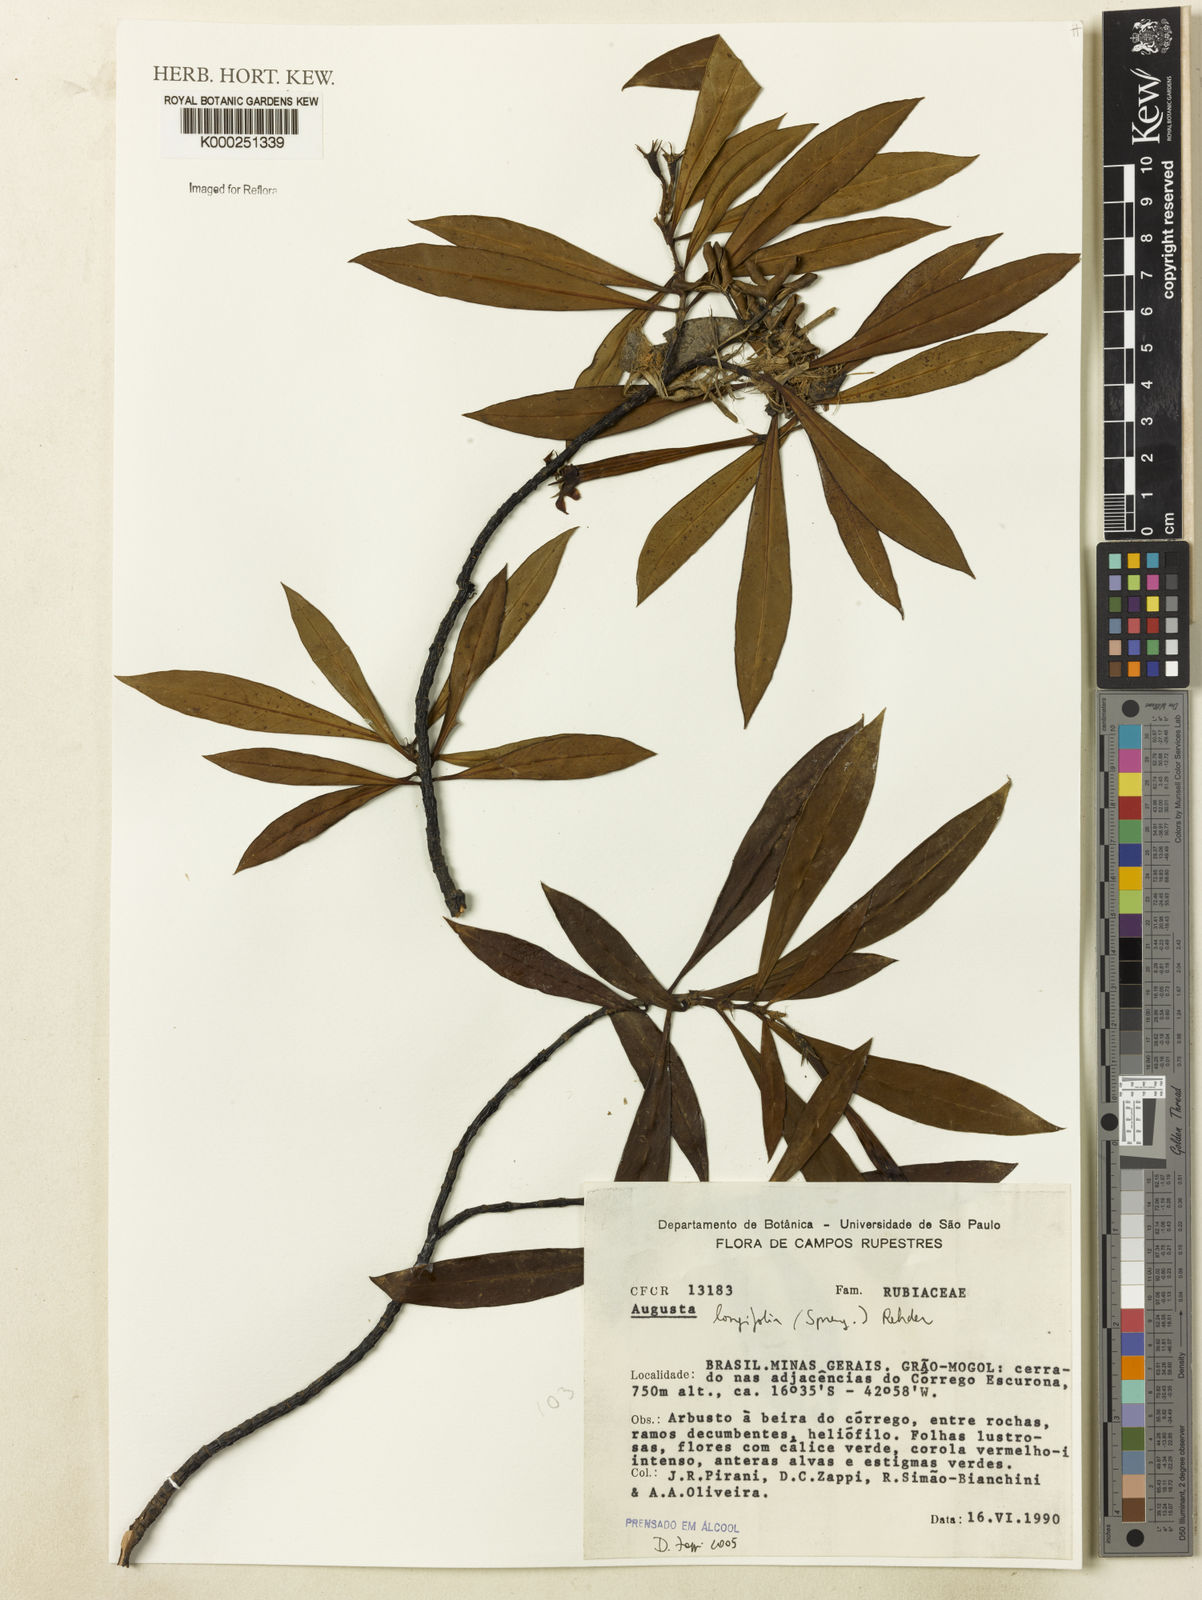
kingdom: Plantae
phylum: Tracheophyta
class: Magnoliopsida
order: Gentianales
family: Rubiaceae
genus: Augusta
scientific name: Augusta longifolia
